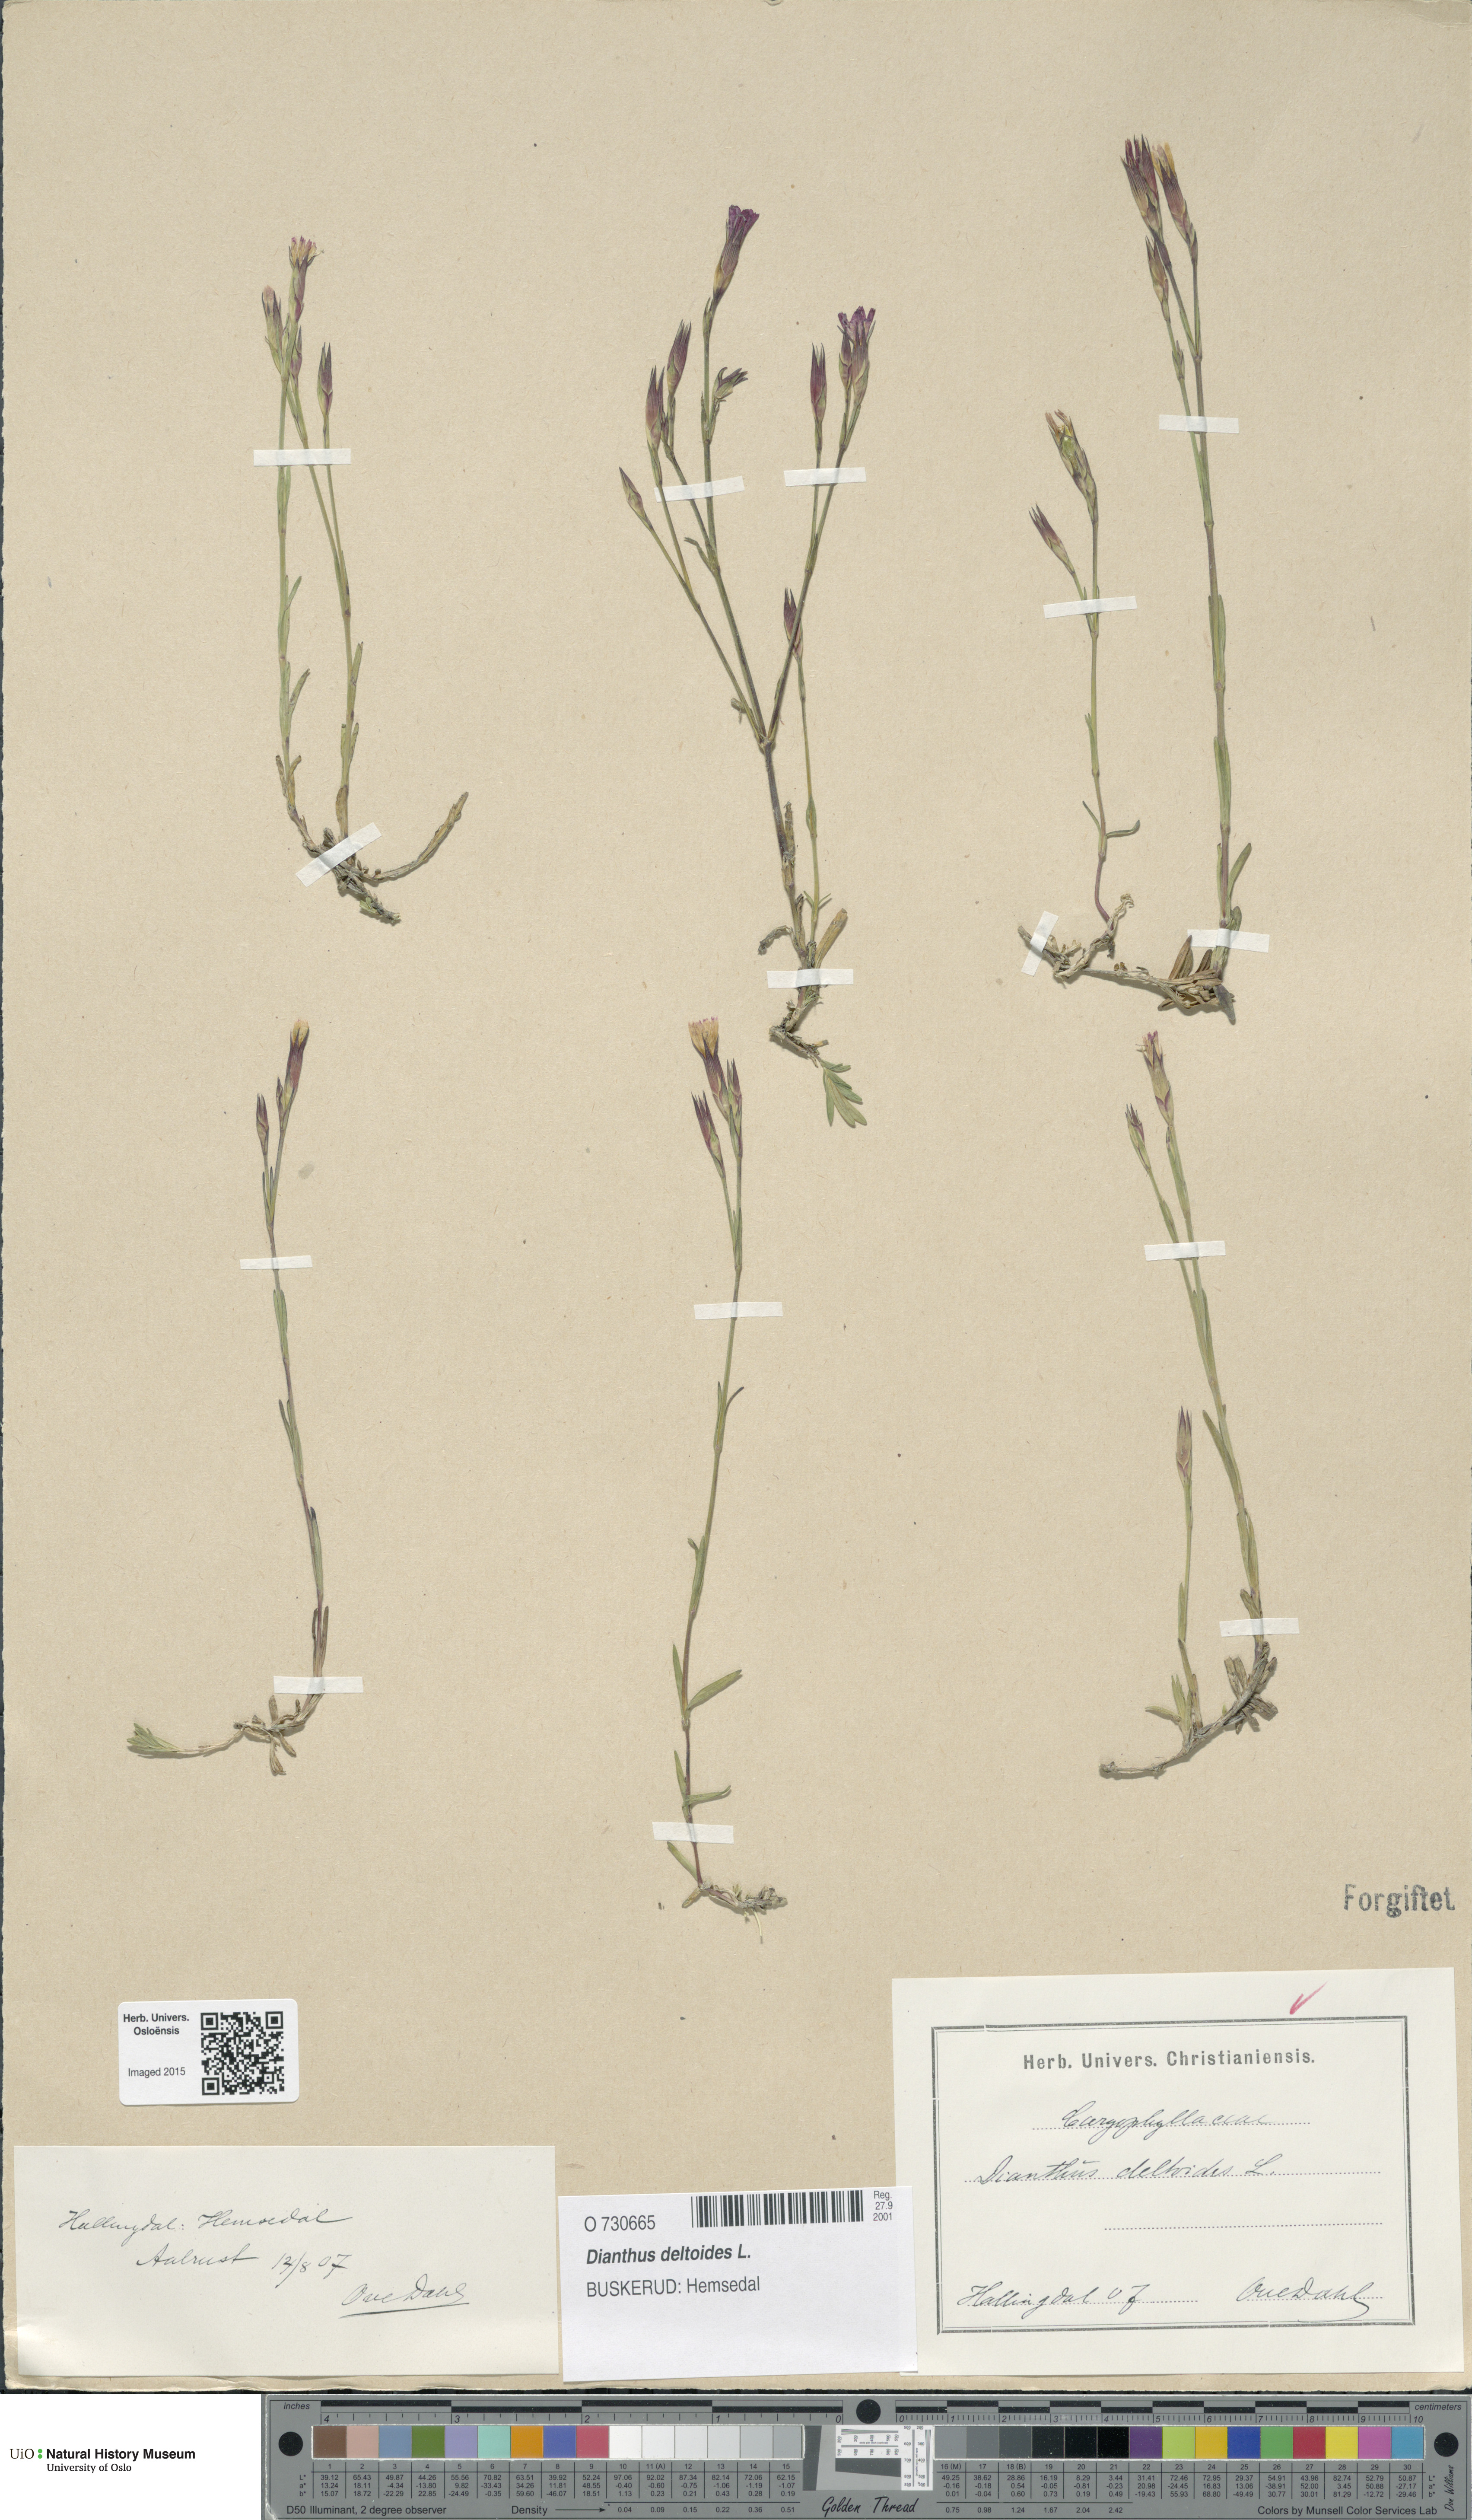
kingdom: Plantae
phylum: Tracheophyta
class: Magnoliopsida
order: Caryophyllales
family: Caryophyllaceae
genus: Dianthus
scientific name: Dianthus deltoides
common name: Maiden pink
